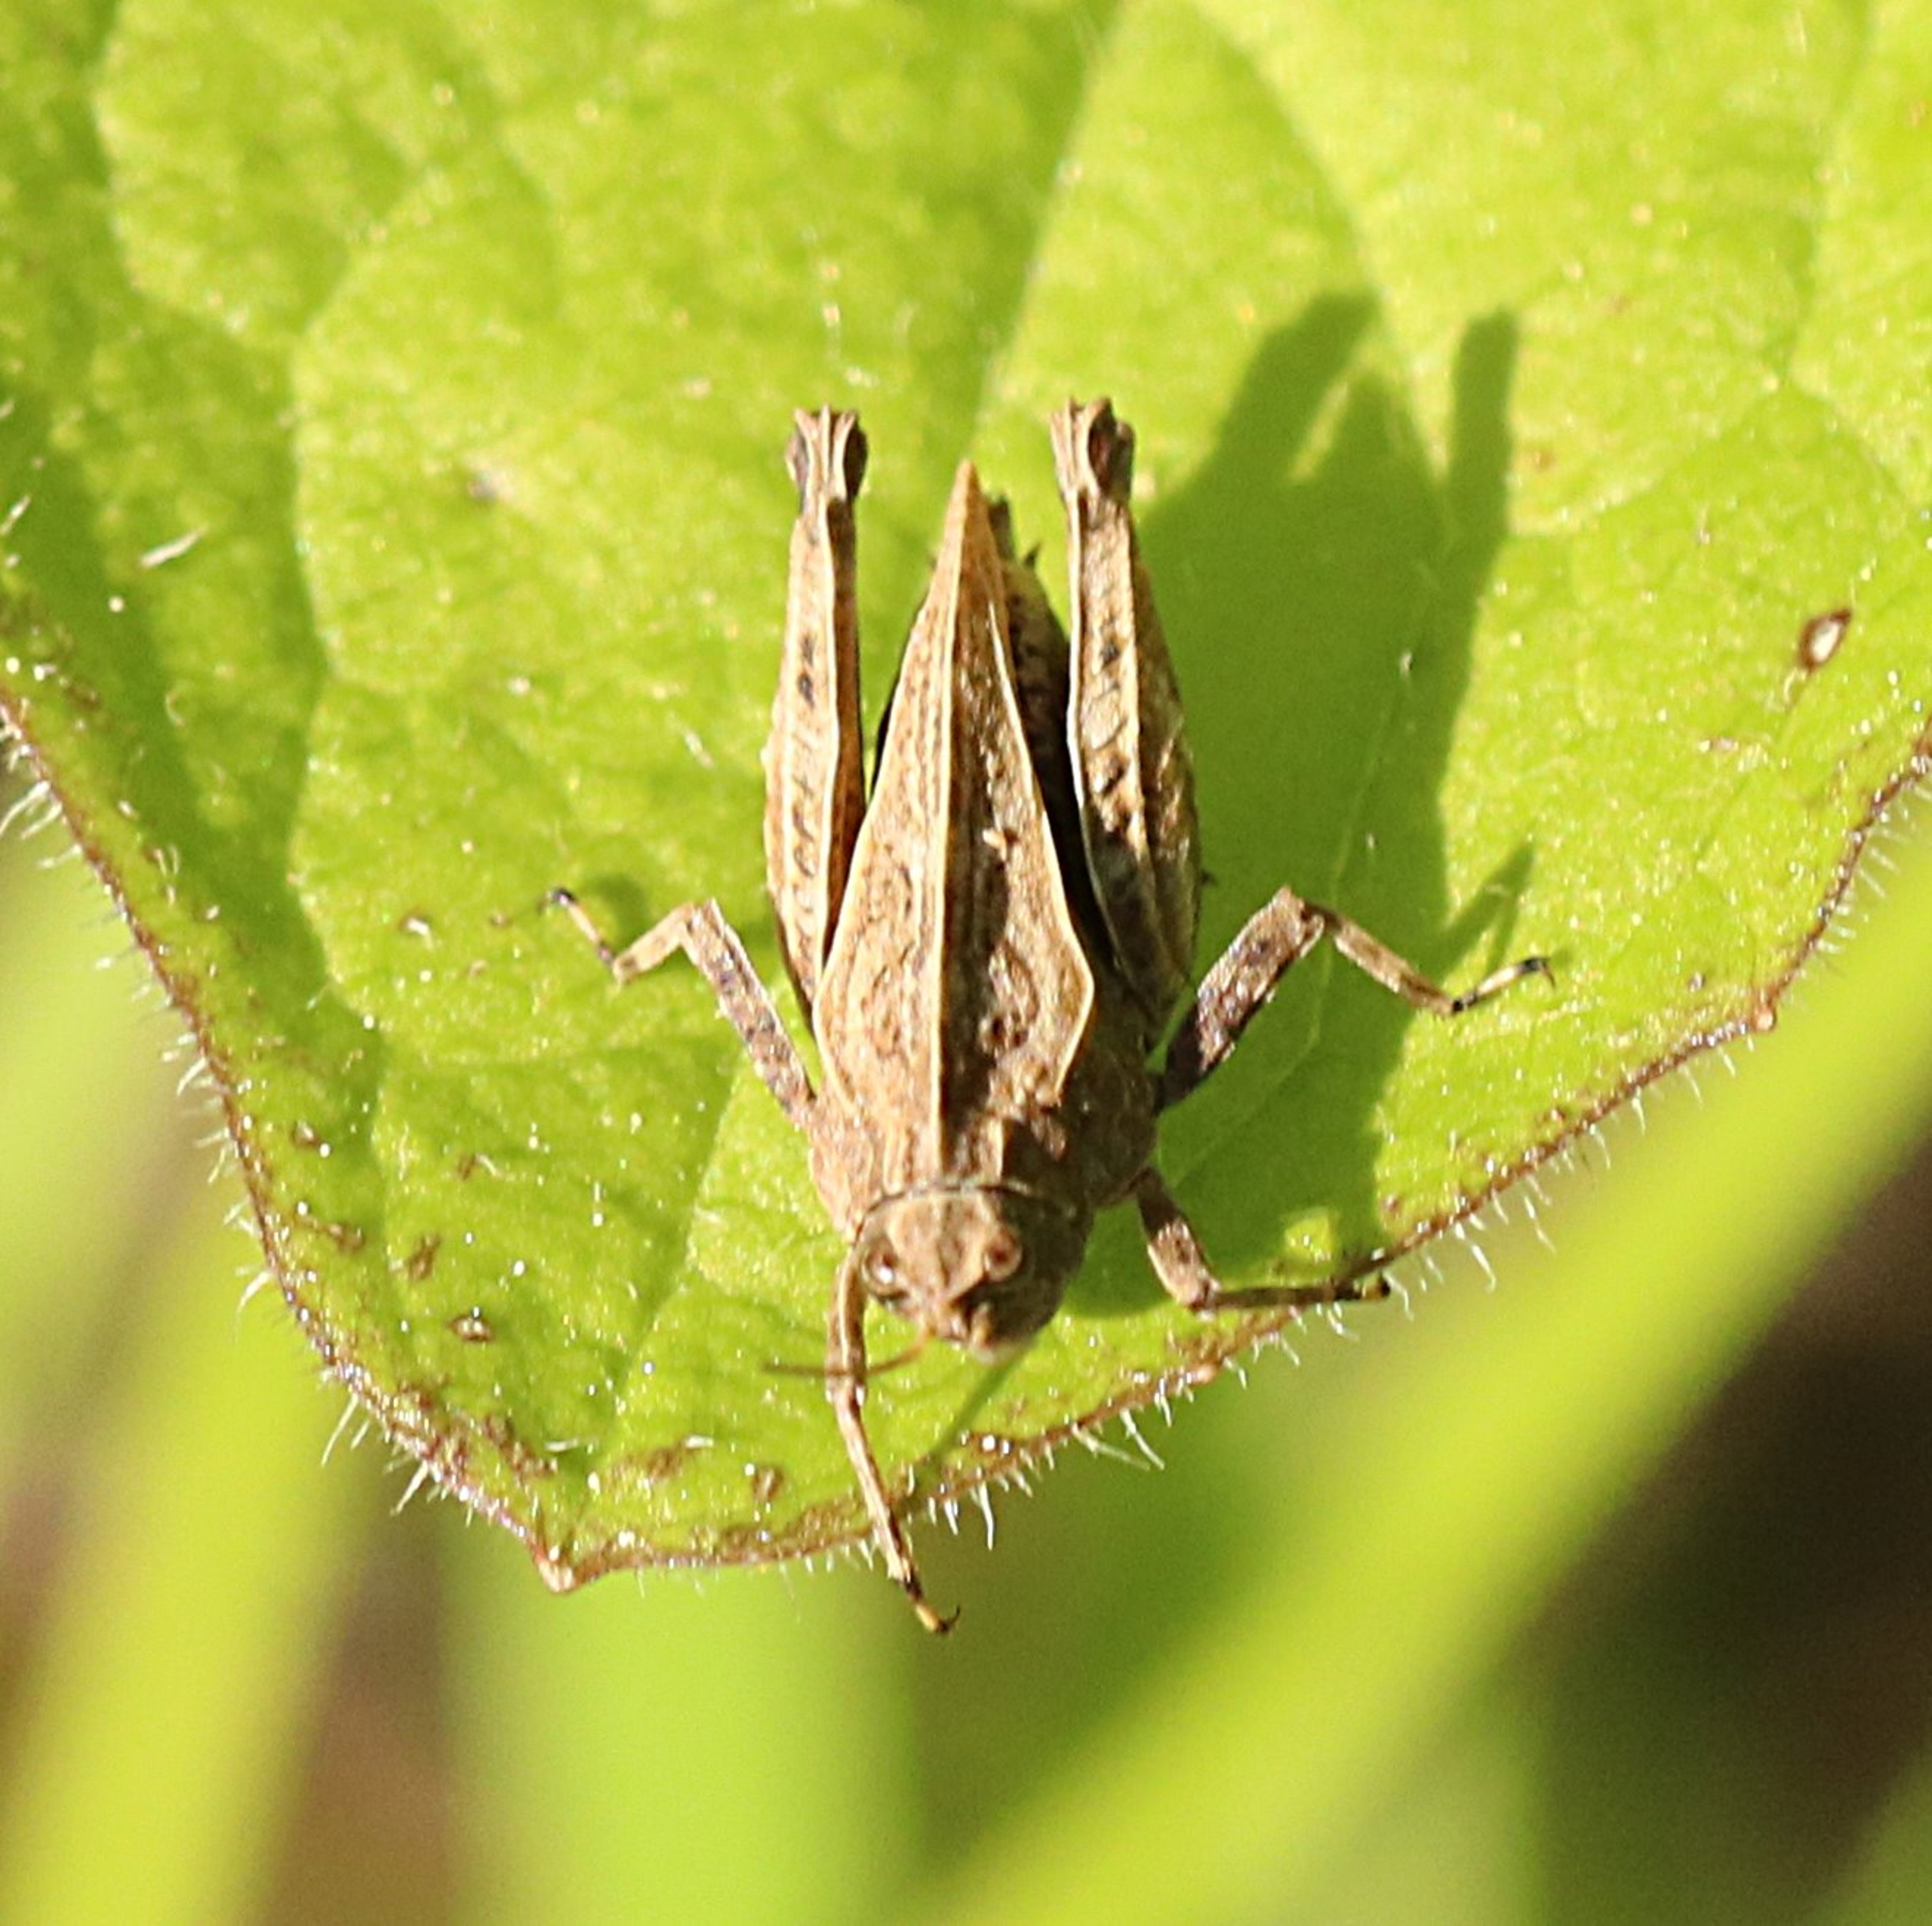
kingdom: Animalia
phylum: Arthropoda
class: Insecta
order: Orthoptera
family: Tetrigidae
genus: Tetrix
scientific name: Tetrix undulata
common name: Almindelig torngræshoppe
